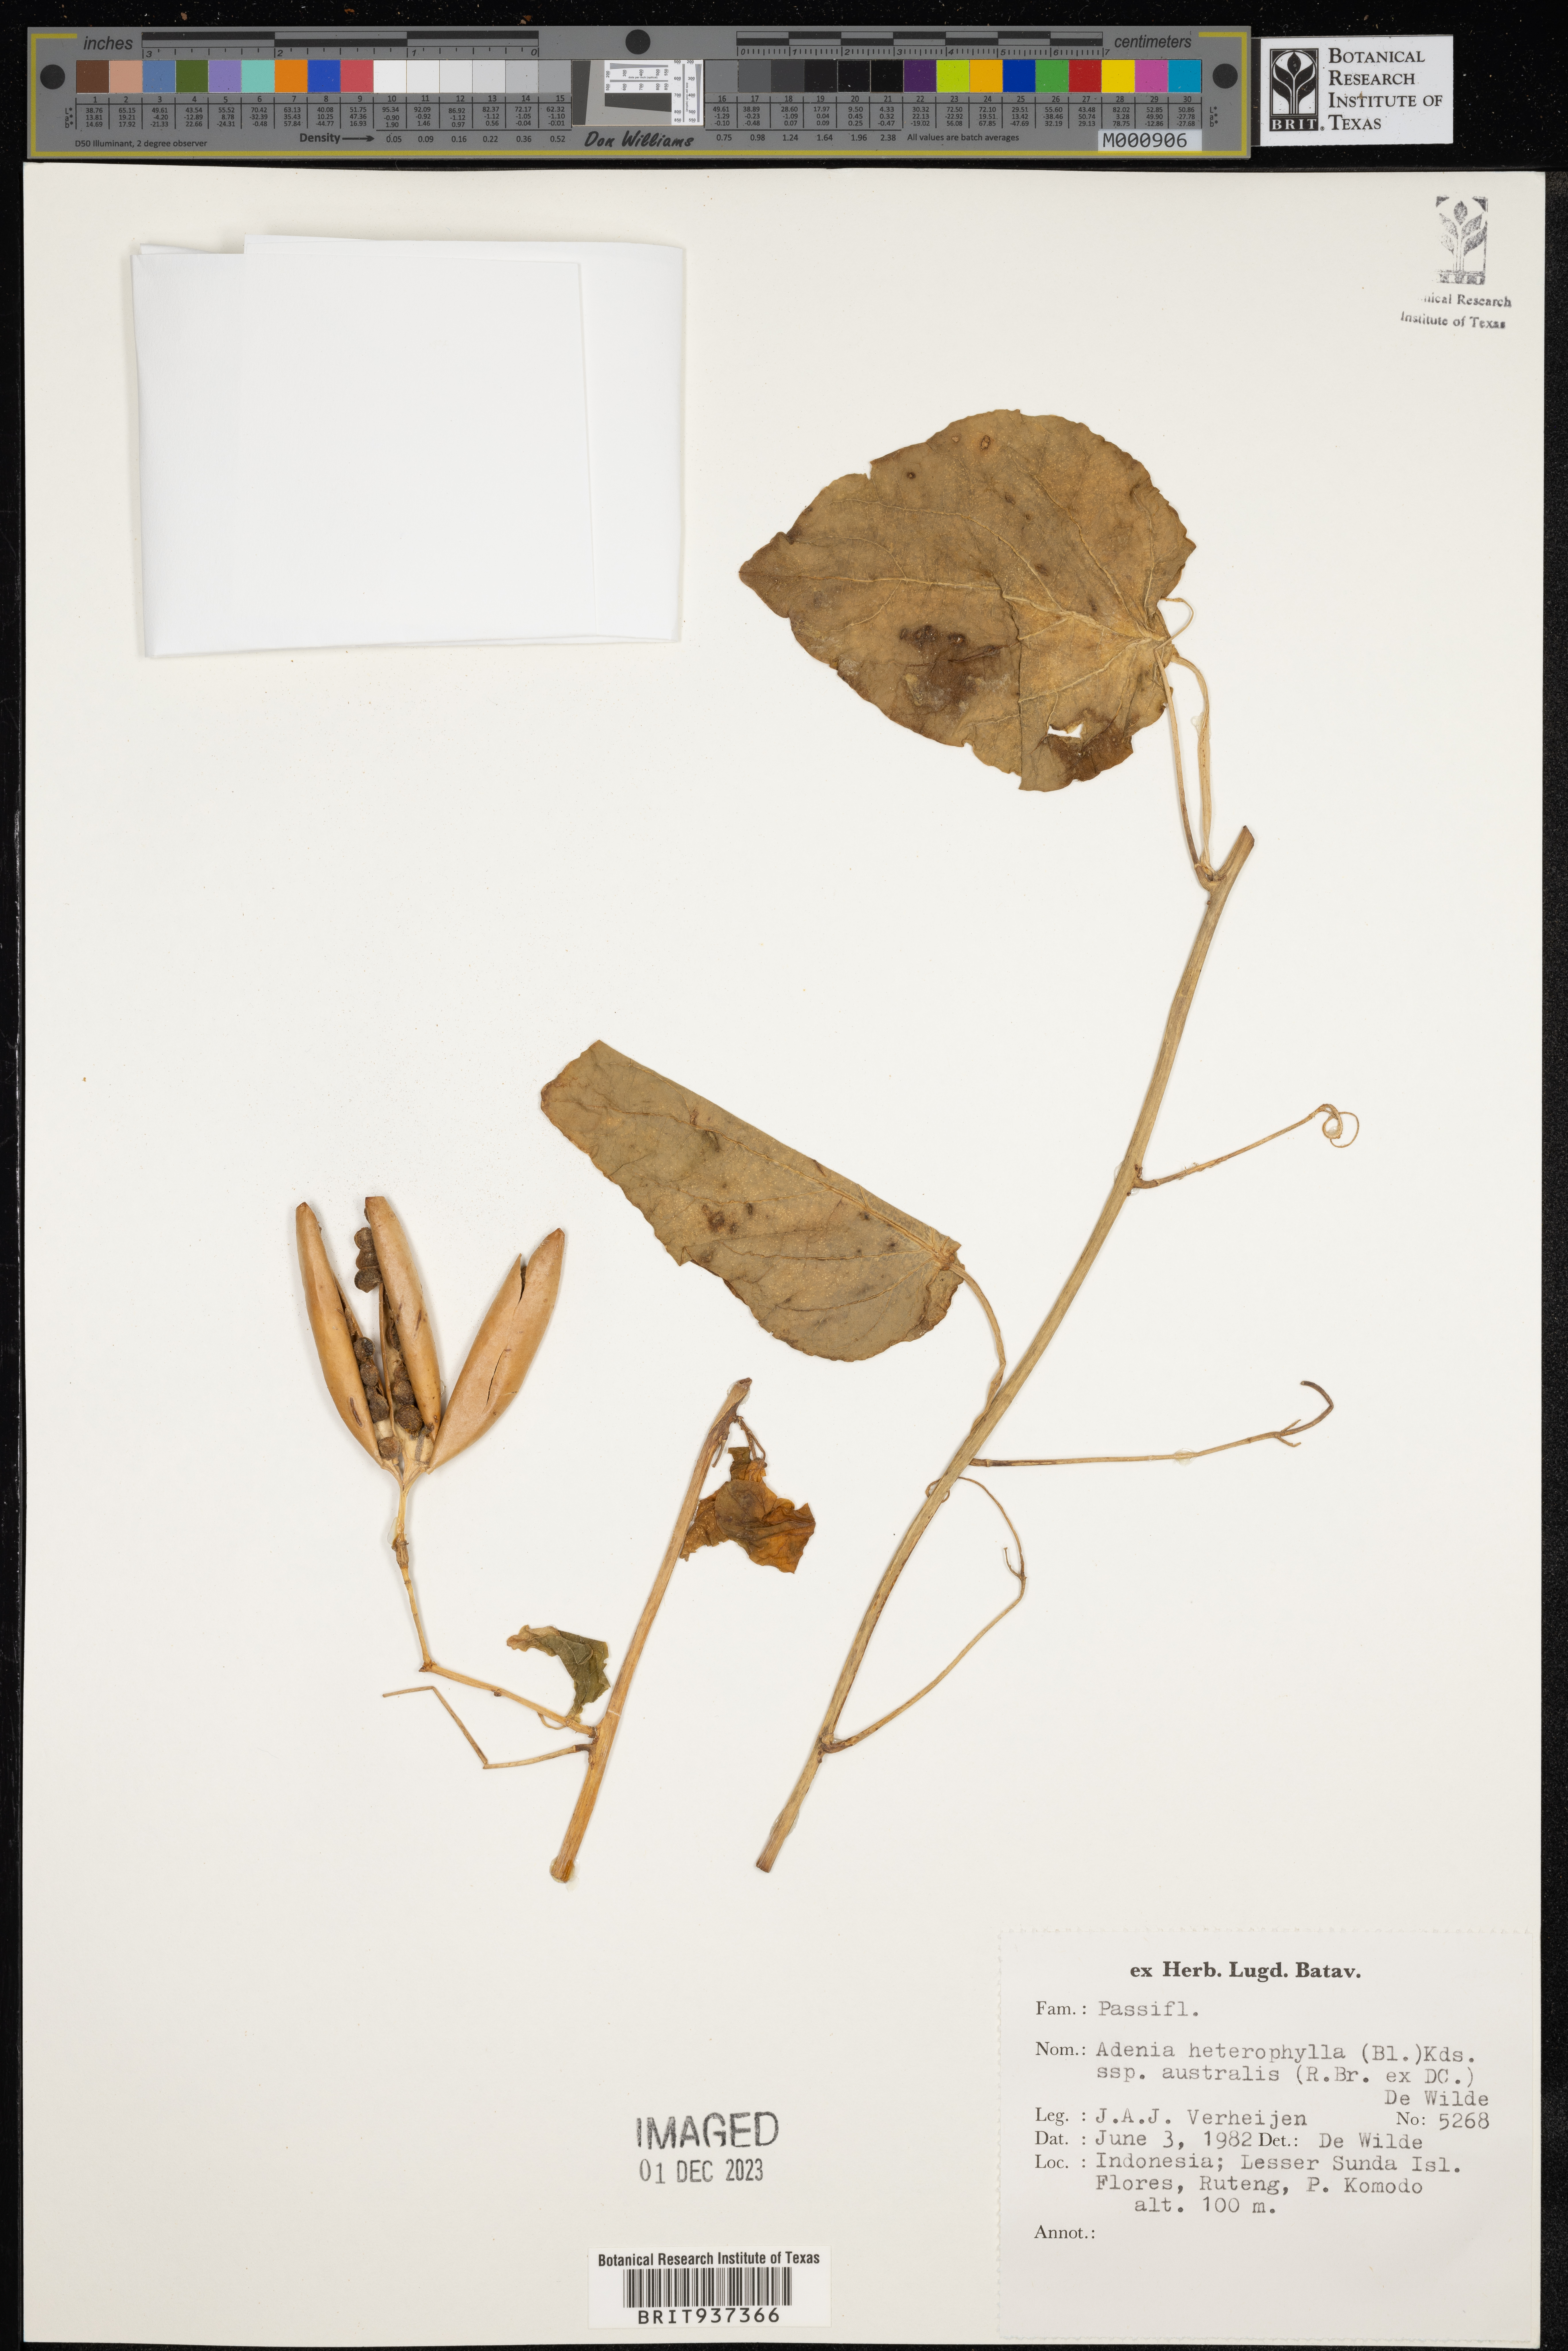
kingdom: Plantae
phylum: Tracheophyta
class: Magnoliopsida
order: Malpighiales
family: Passifloraceae
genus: Adenia
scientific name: Adenia
